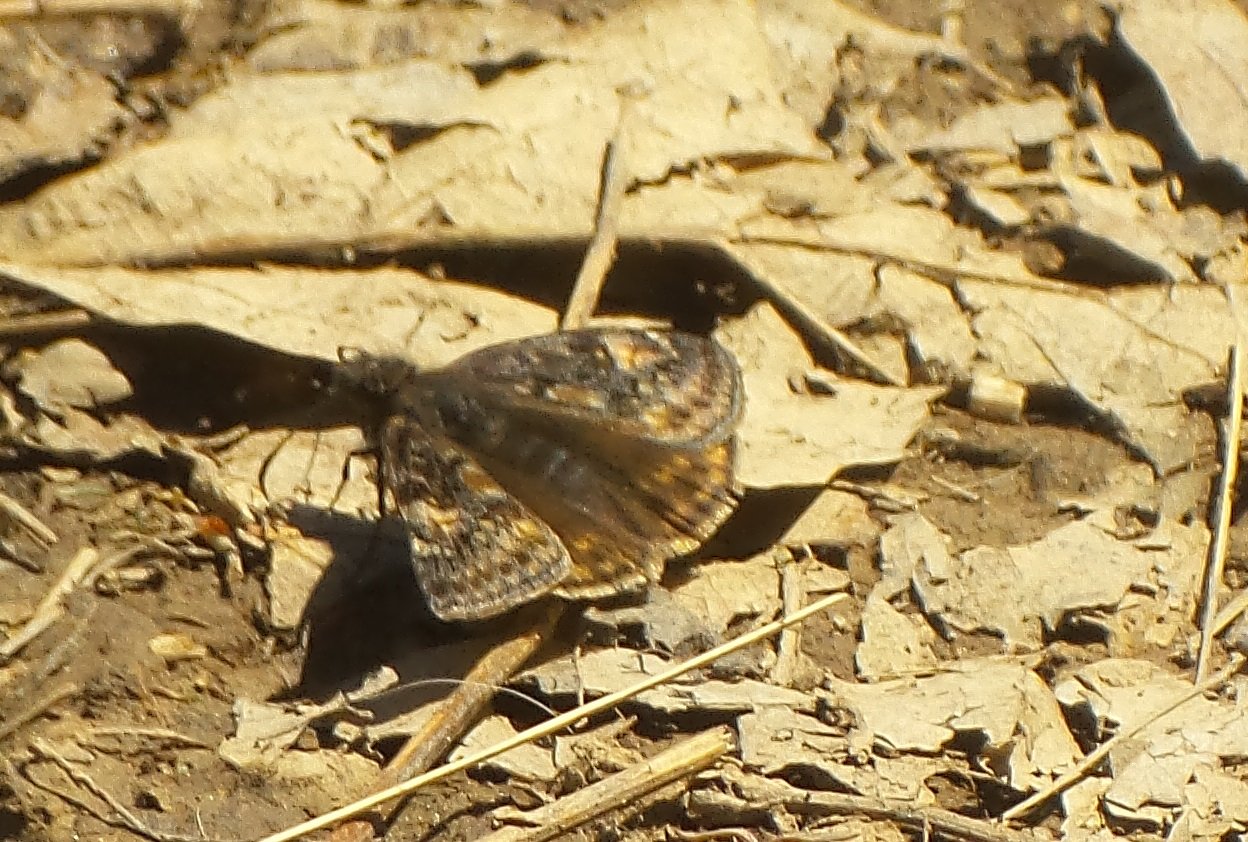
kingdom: Animalia
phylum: Arthropoda
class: Insecta
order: Lepidoptera
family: Hesperiidae
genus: Gesta
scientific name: Gesta
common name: Juvenal's Duskywing
